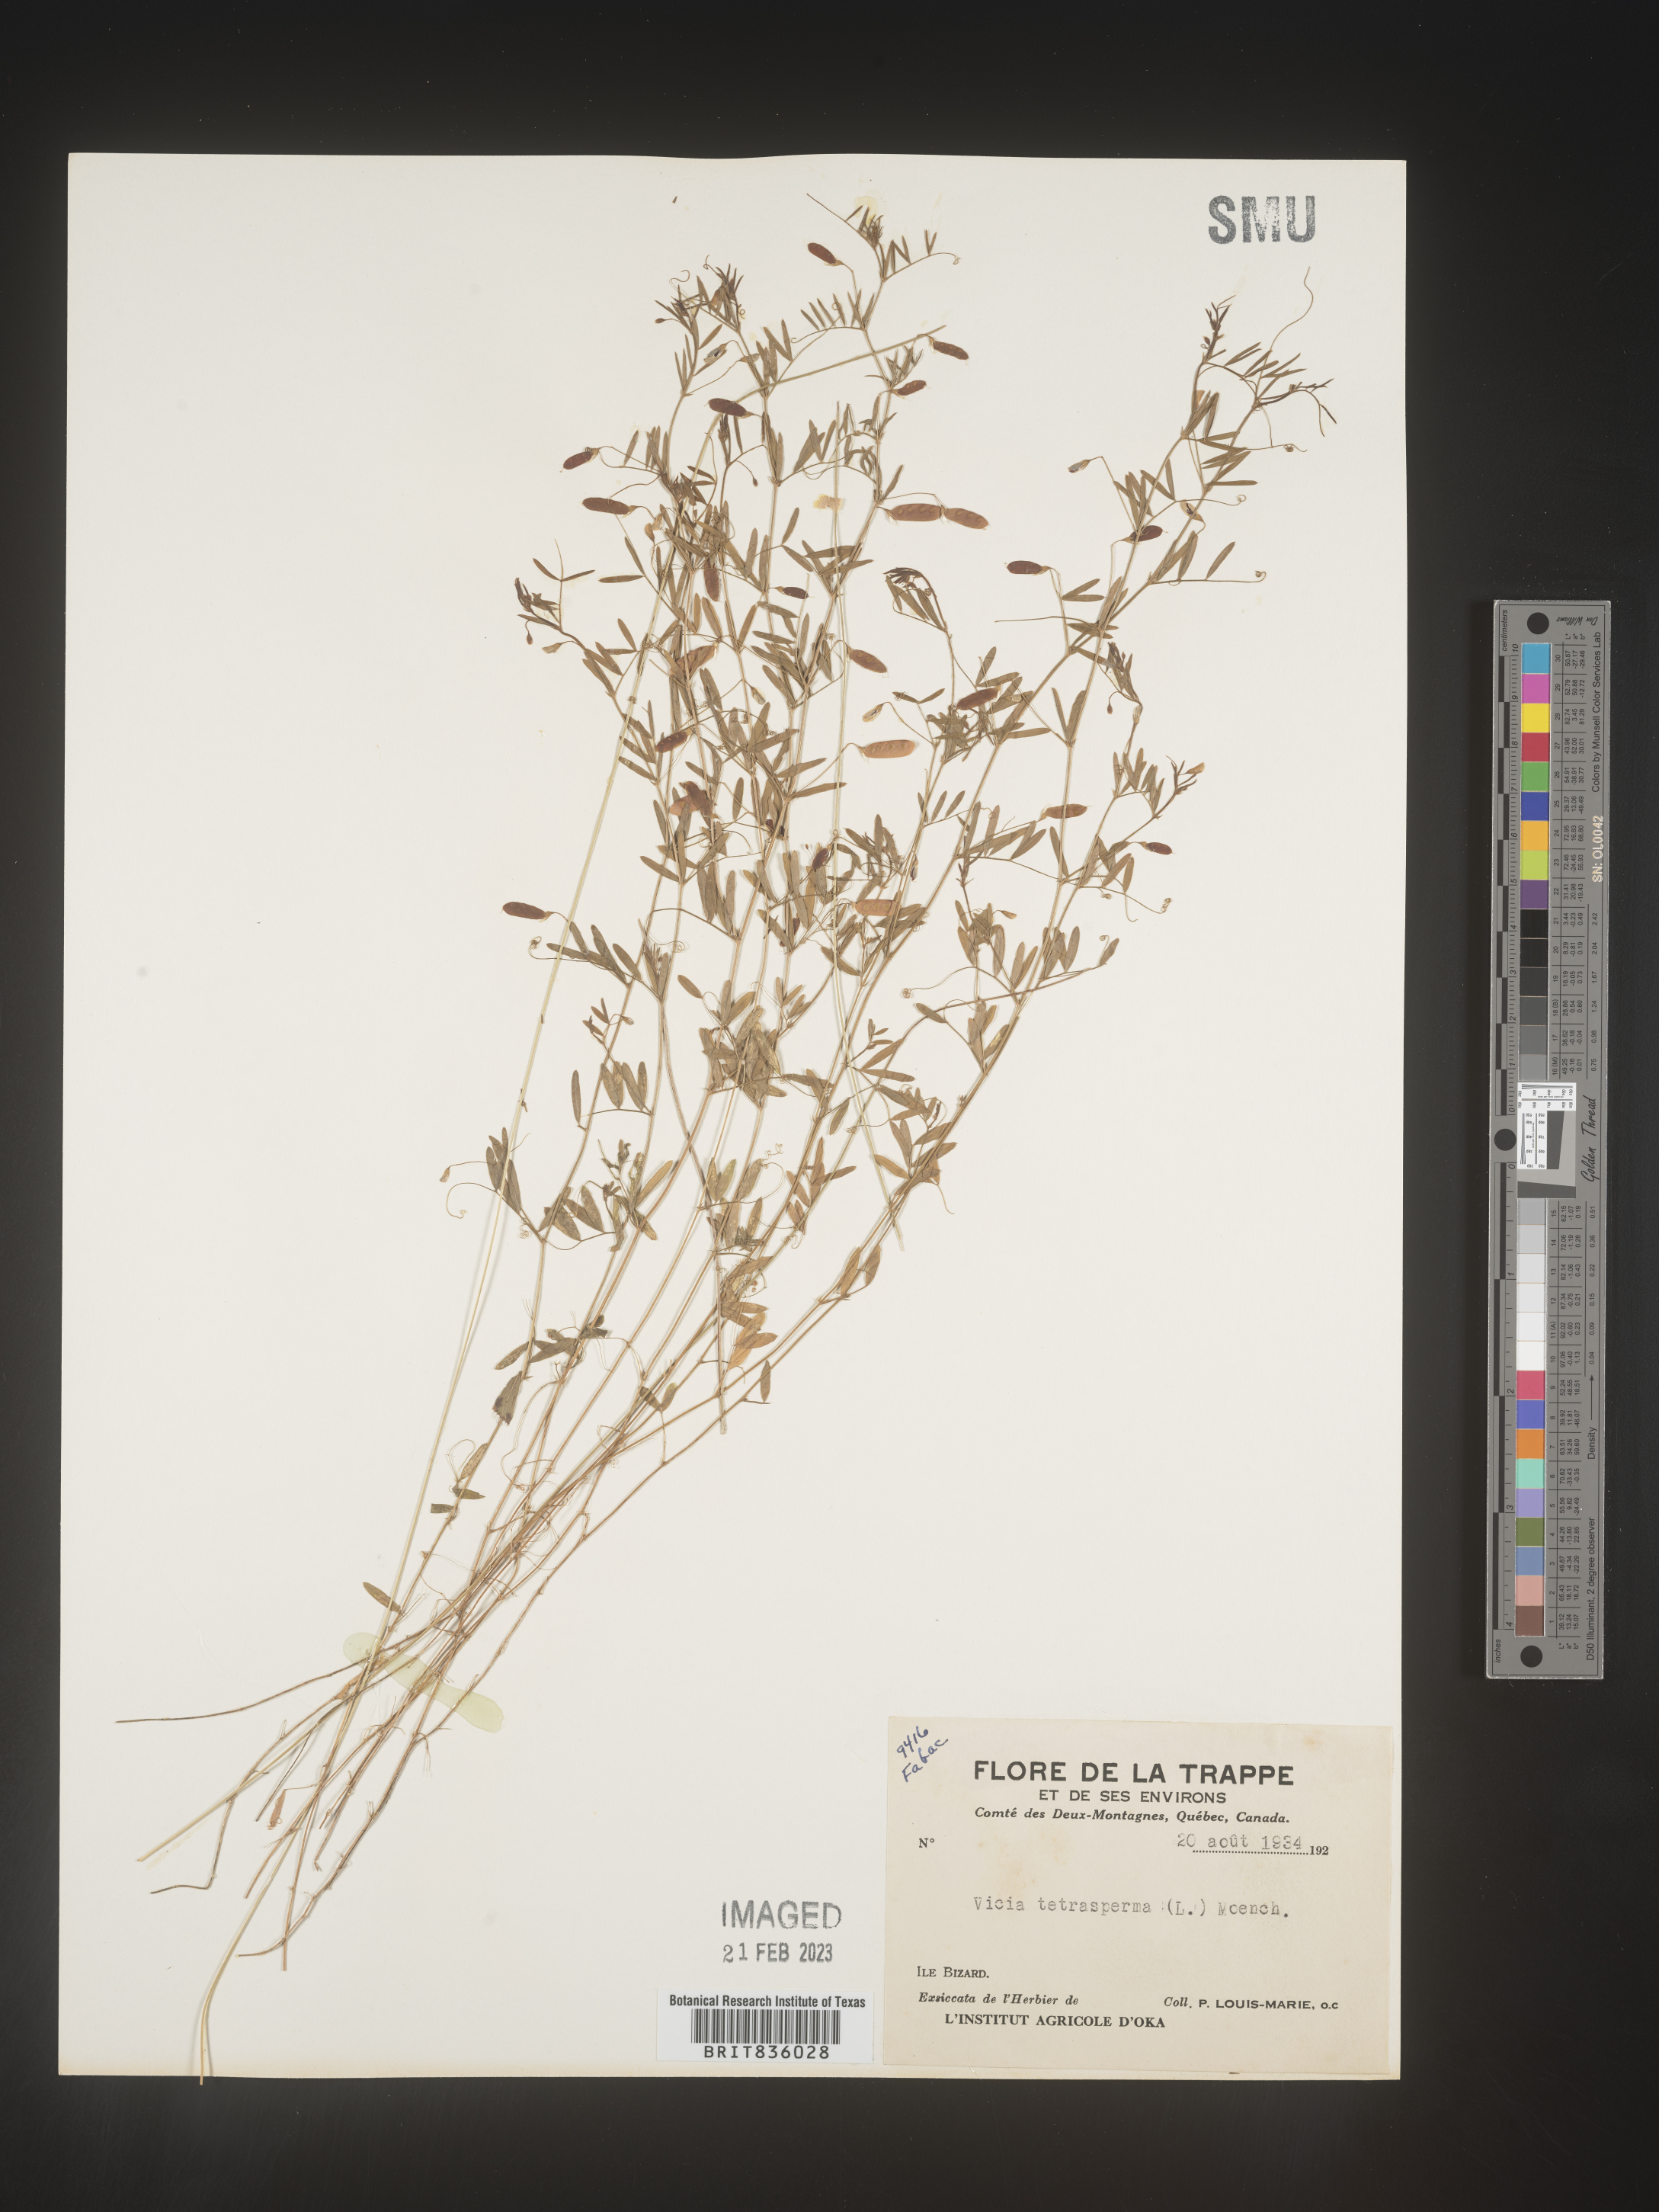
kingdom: Plantae
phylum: Tracheophyta
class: Magnoliopsida
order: Fabales
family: Fabaceae
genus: Vicia
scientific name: Vicia tetrasperma
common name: Smooth tare
